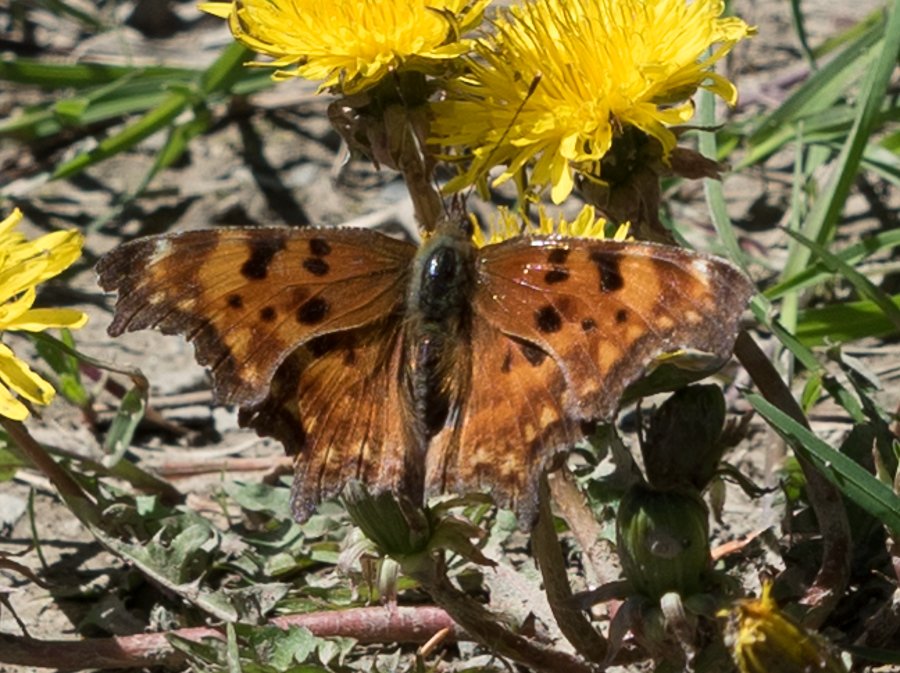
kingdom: Animalia
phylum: Arthropoda
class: Insecta
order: Lepidoptera
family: Nymphalidae
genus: Polygonia
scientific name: Polygonia oreas
